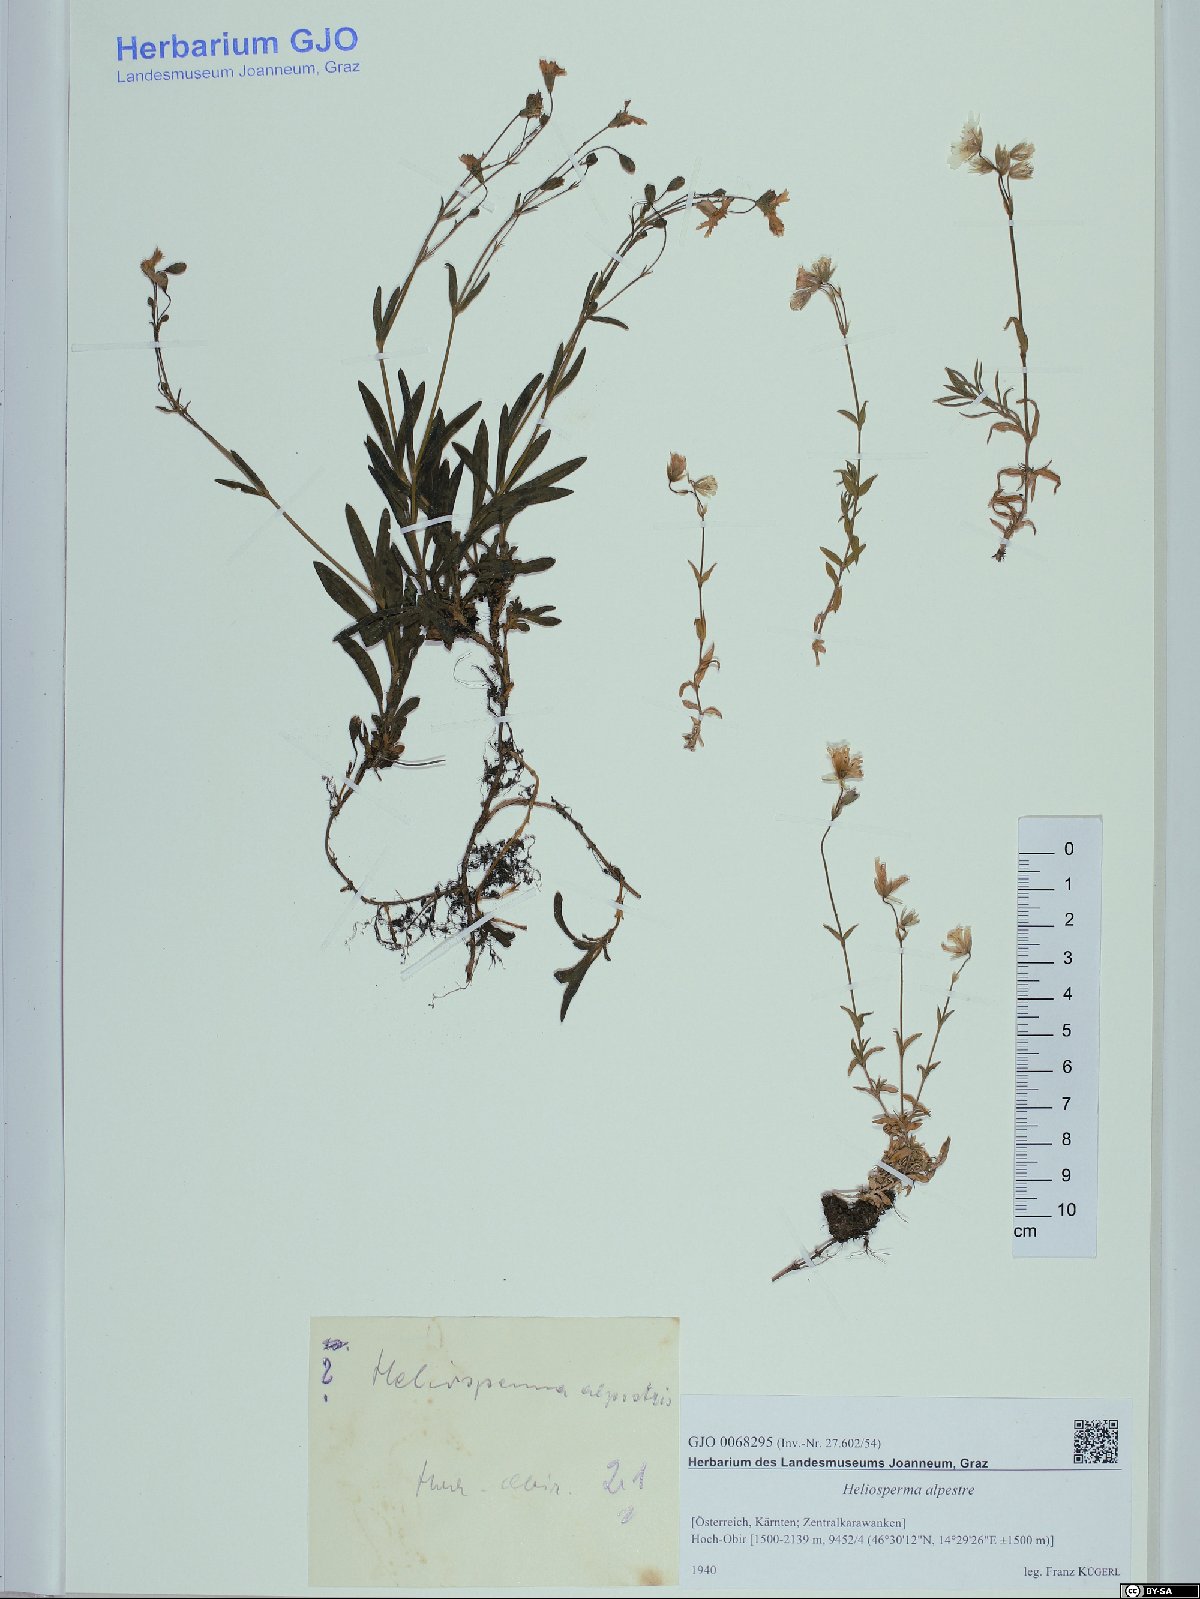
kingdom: Plantae
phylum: Tracheophyta
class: Magnoliopsida
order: Caryophyllales
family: Caryophyllaceae
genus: Heliosperma
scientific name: Heliosperma alpestre
